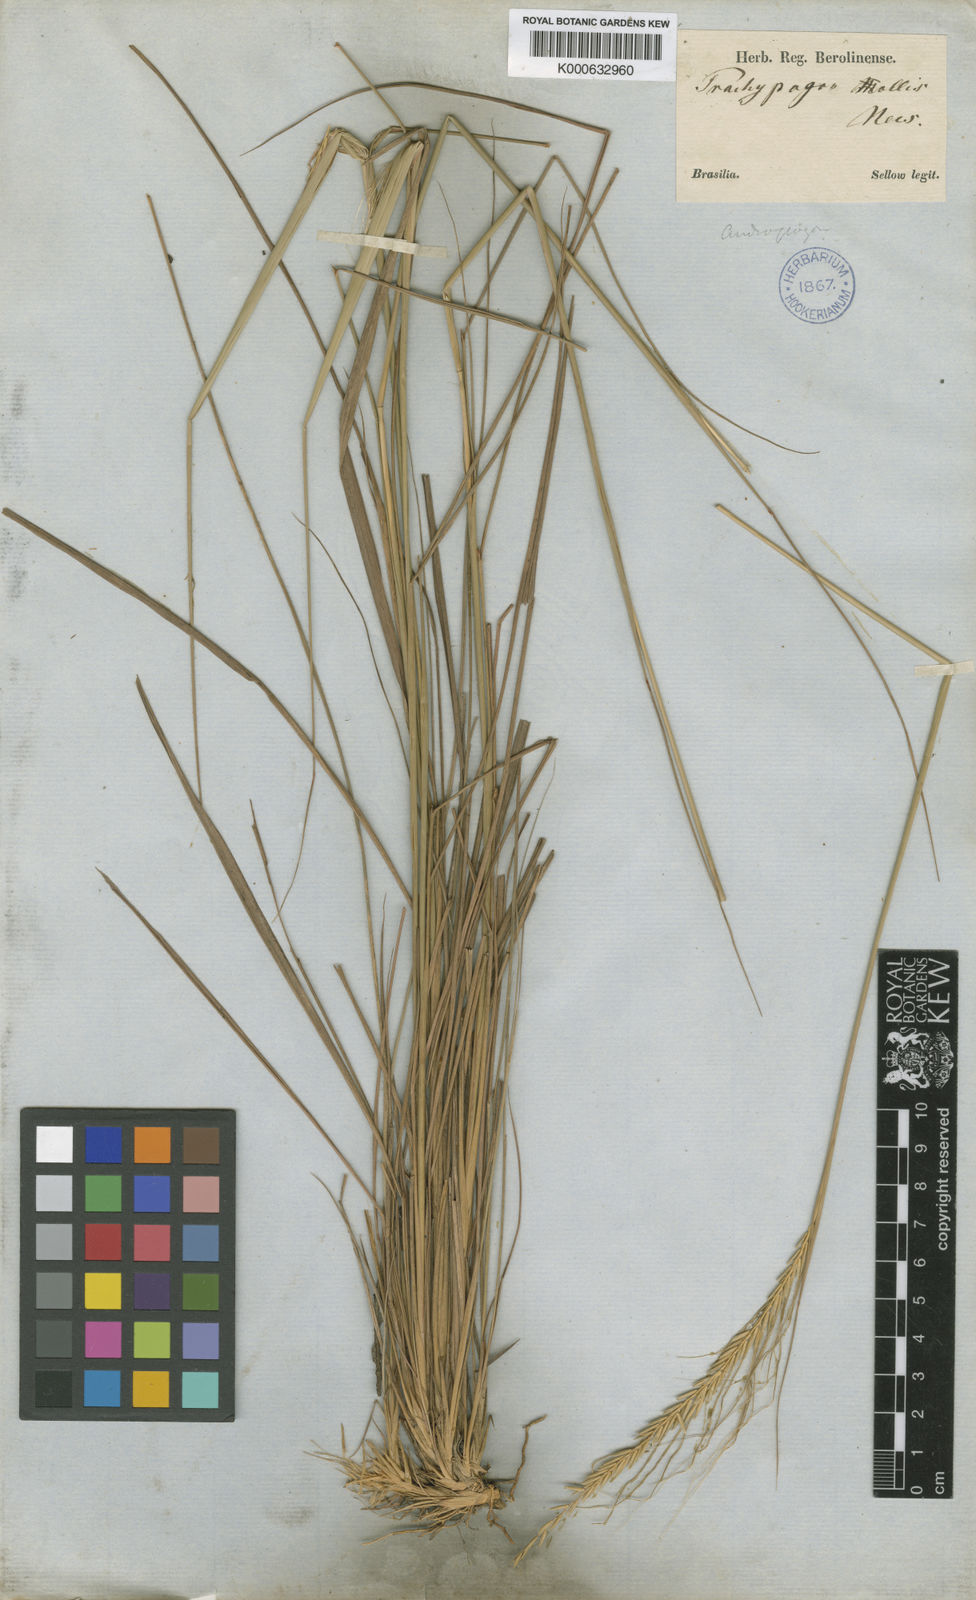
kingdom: Plantae
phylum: Tracheophyta
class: Liliopsida
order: Poales
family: Poaceae
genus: Trachypogon
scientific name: Trachypogon spicatus
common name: Crinkle-awn
